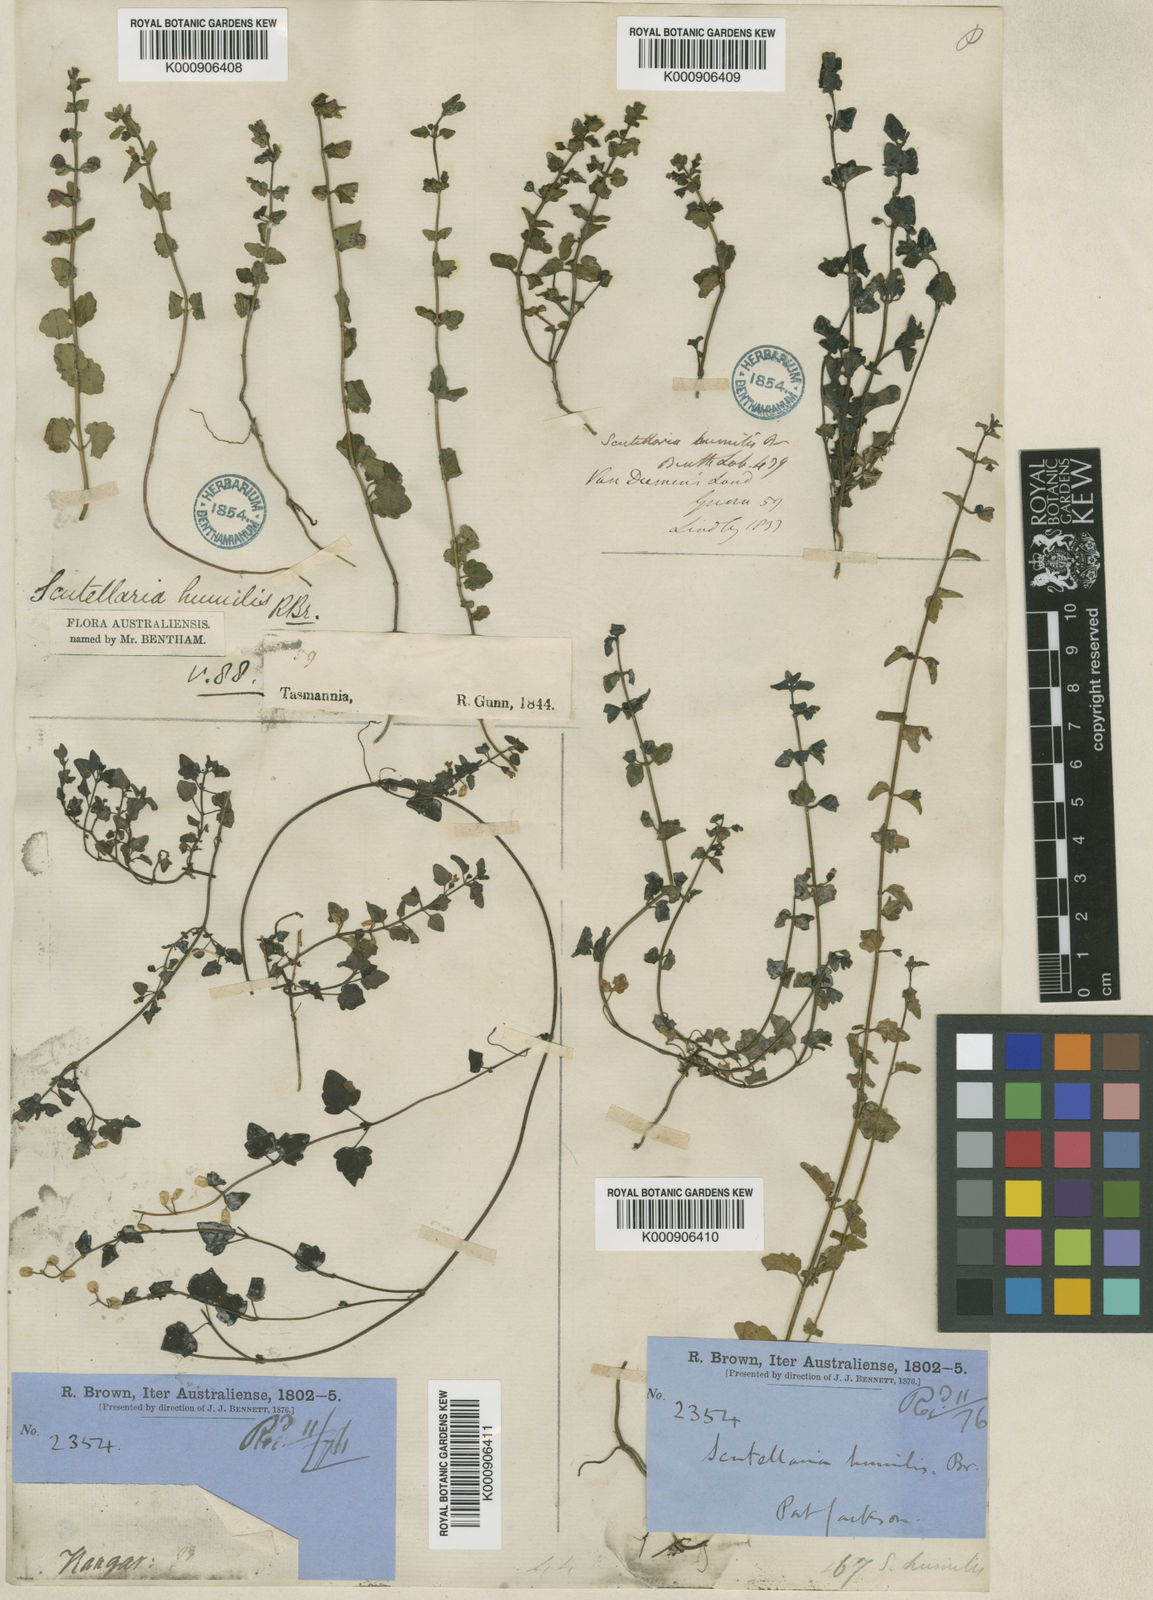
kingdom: Plantae
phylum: Tracheophyta
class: Magnoliopsida
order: Lamiales
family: Lamiaceae
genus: Scutellaria
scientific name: Scutellaria humilis
